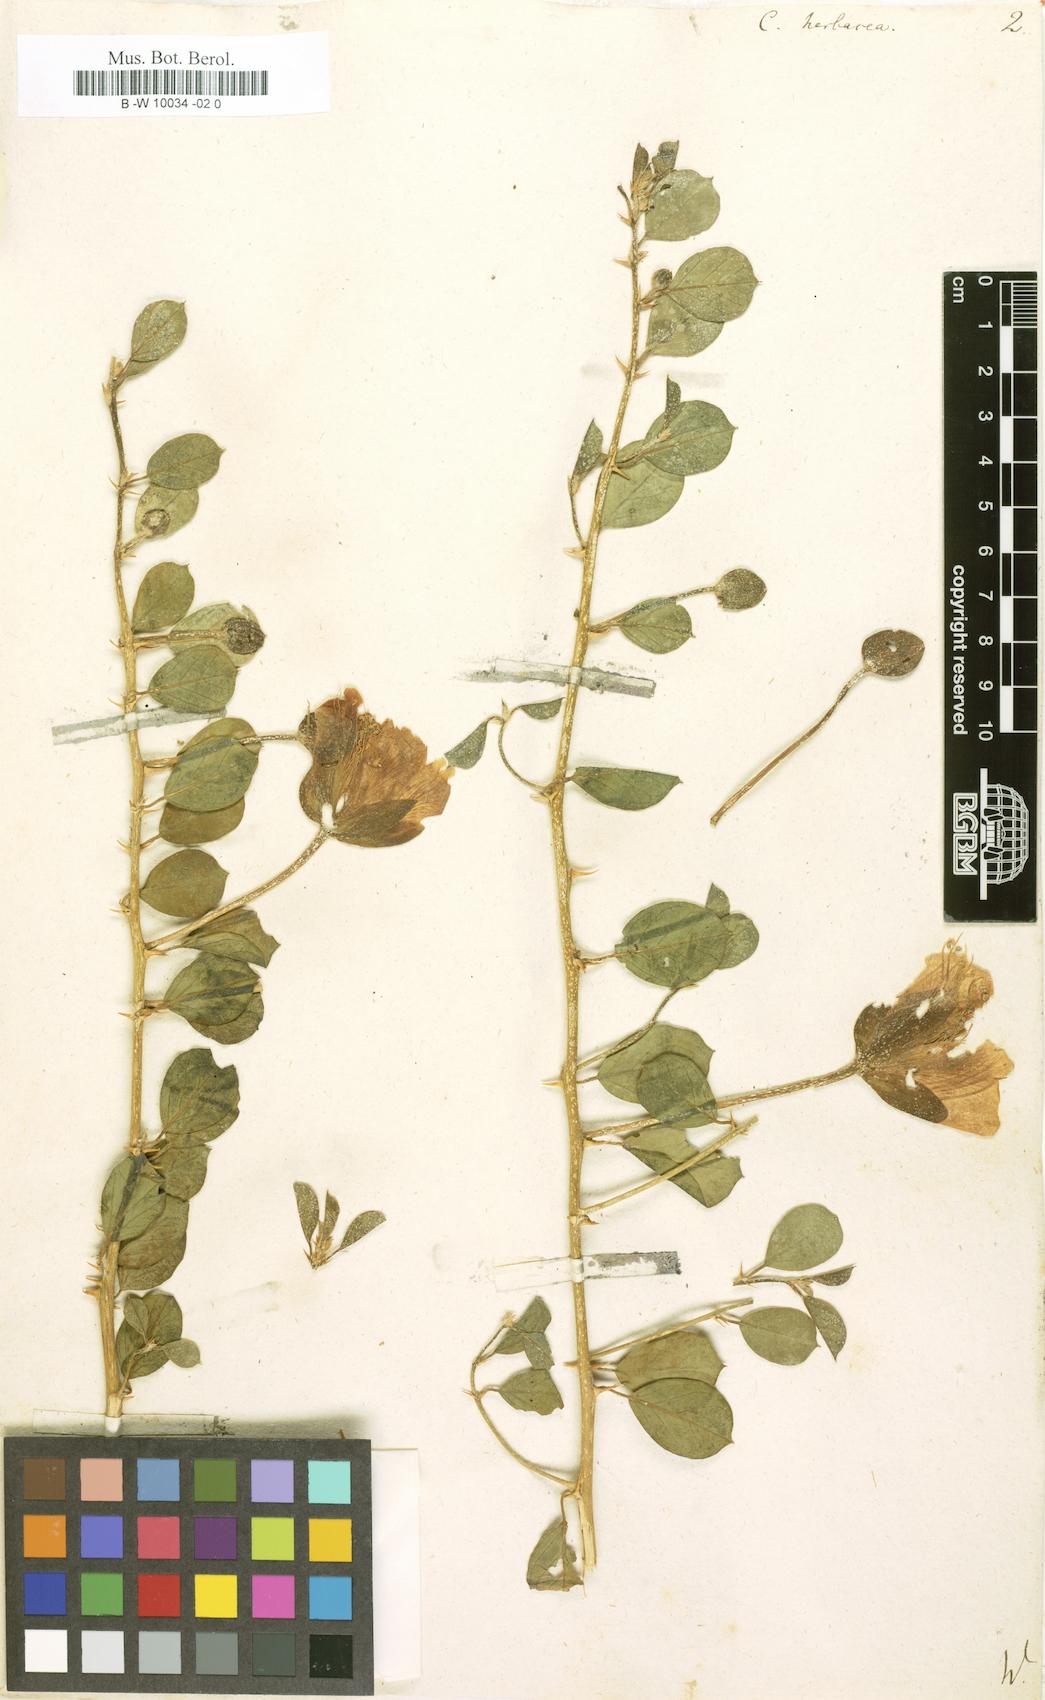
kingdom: Plantae
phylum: Tracheophyta
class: Magnoliopsida
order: Brassicales
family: Capparaceae
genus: Capparis
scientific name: Capparis spinosa
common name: Caper
